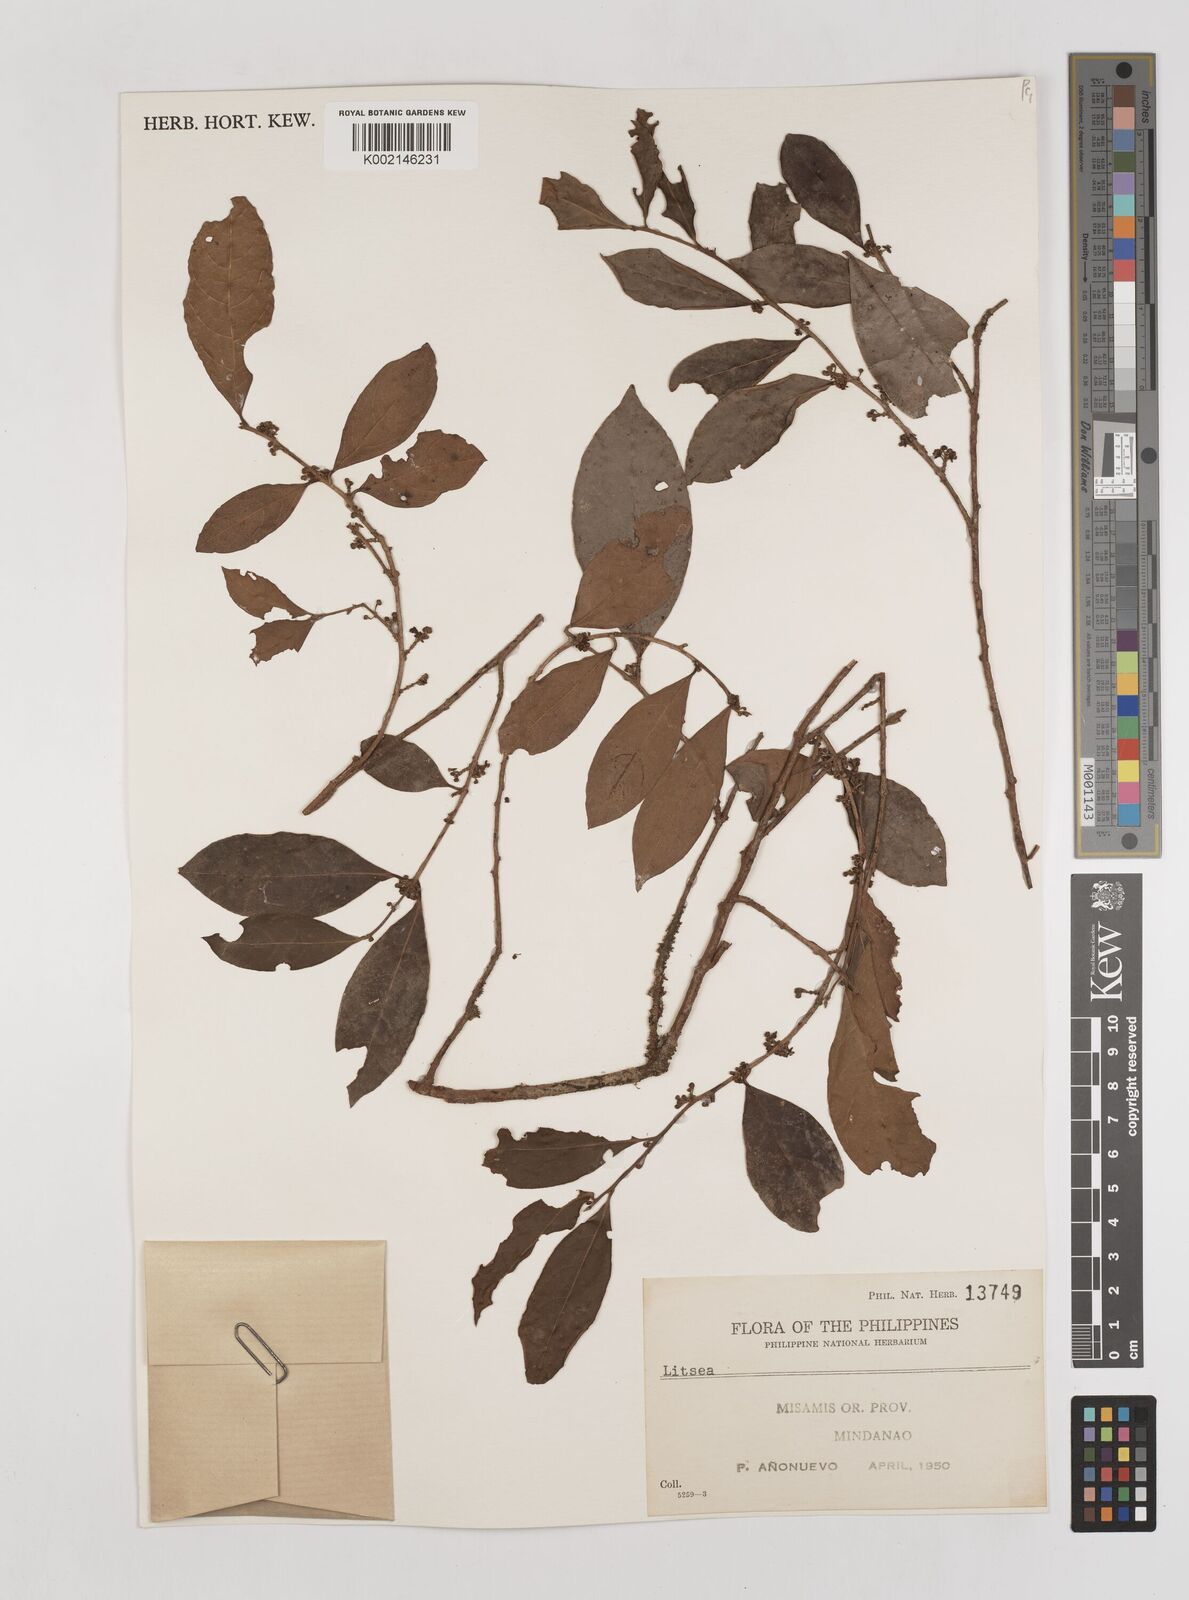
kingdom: Plantae
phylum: Tracheophyta
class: Magnoliopsida
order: Laurales
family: Lauraceae
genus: Litsea
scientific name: Litsea
